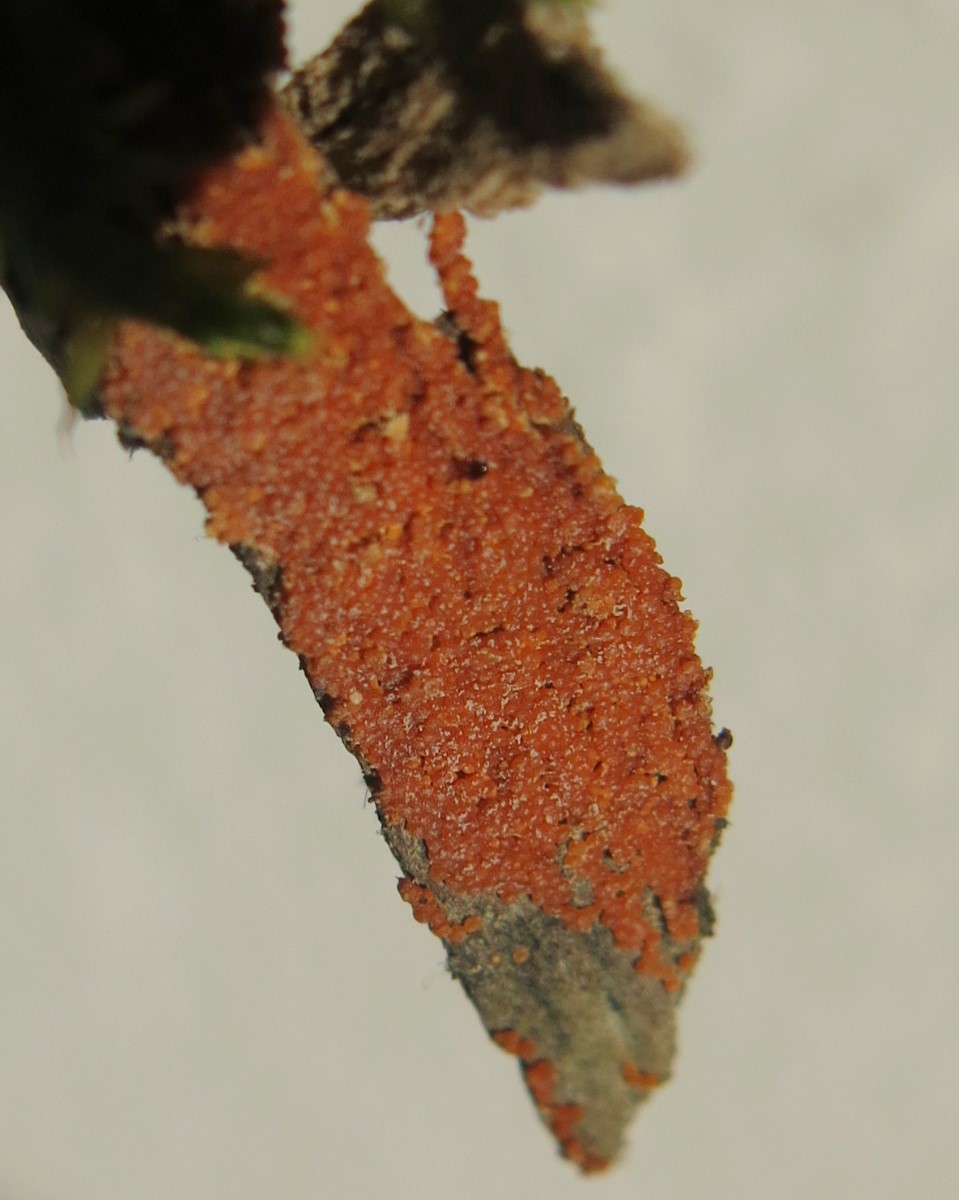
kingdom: Fungi
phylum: Ascomycota
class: Sordariomycetes
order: Hypocreales
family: Nectriaceae
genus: Hydropisphaera
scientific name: Hydropisphaera peziza
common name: skålformet gyldenkerne
